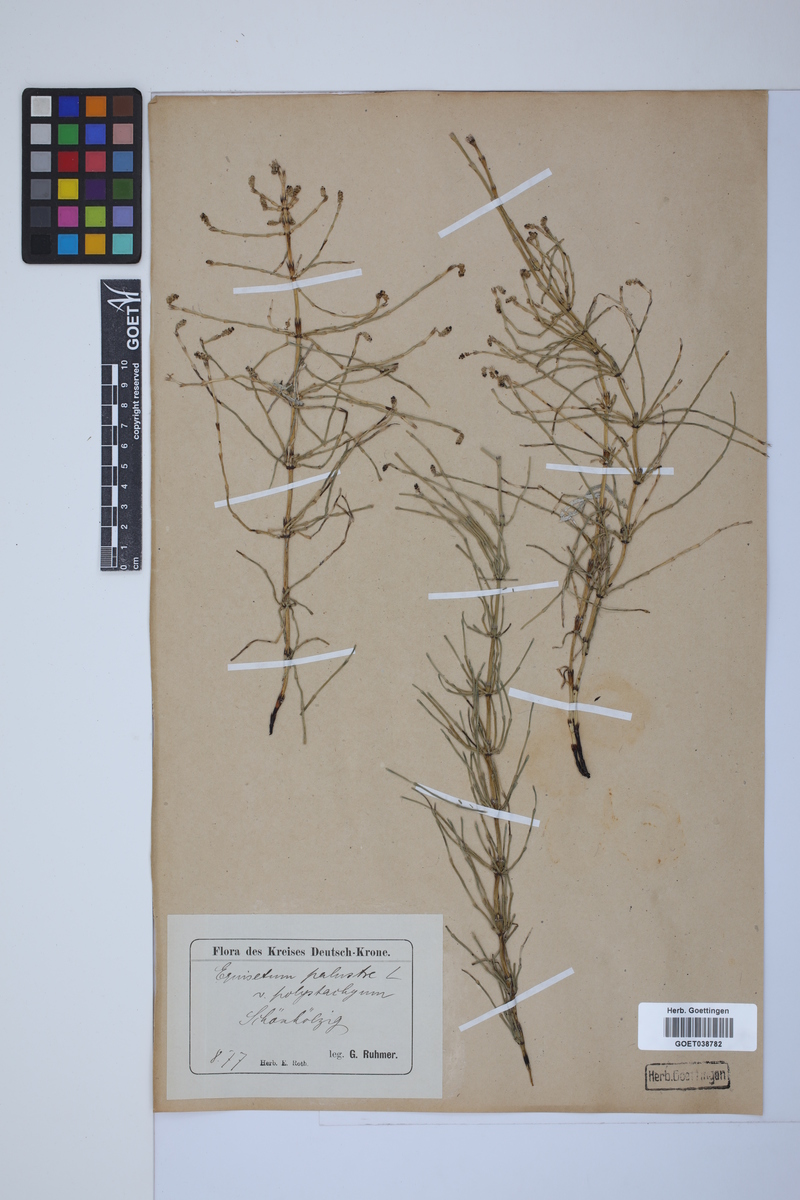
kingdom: Plantae
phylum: Tracheophyta
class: Polypodiopsida
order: Equisetales
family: Equisetaceae
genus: Equisetum
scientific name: Equisetum palustre
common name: Marsh horsetail
